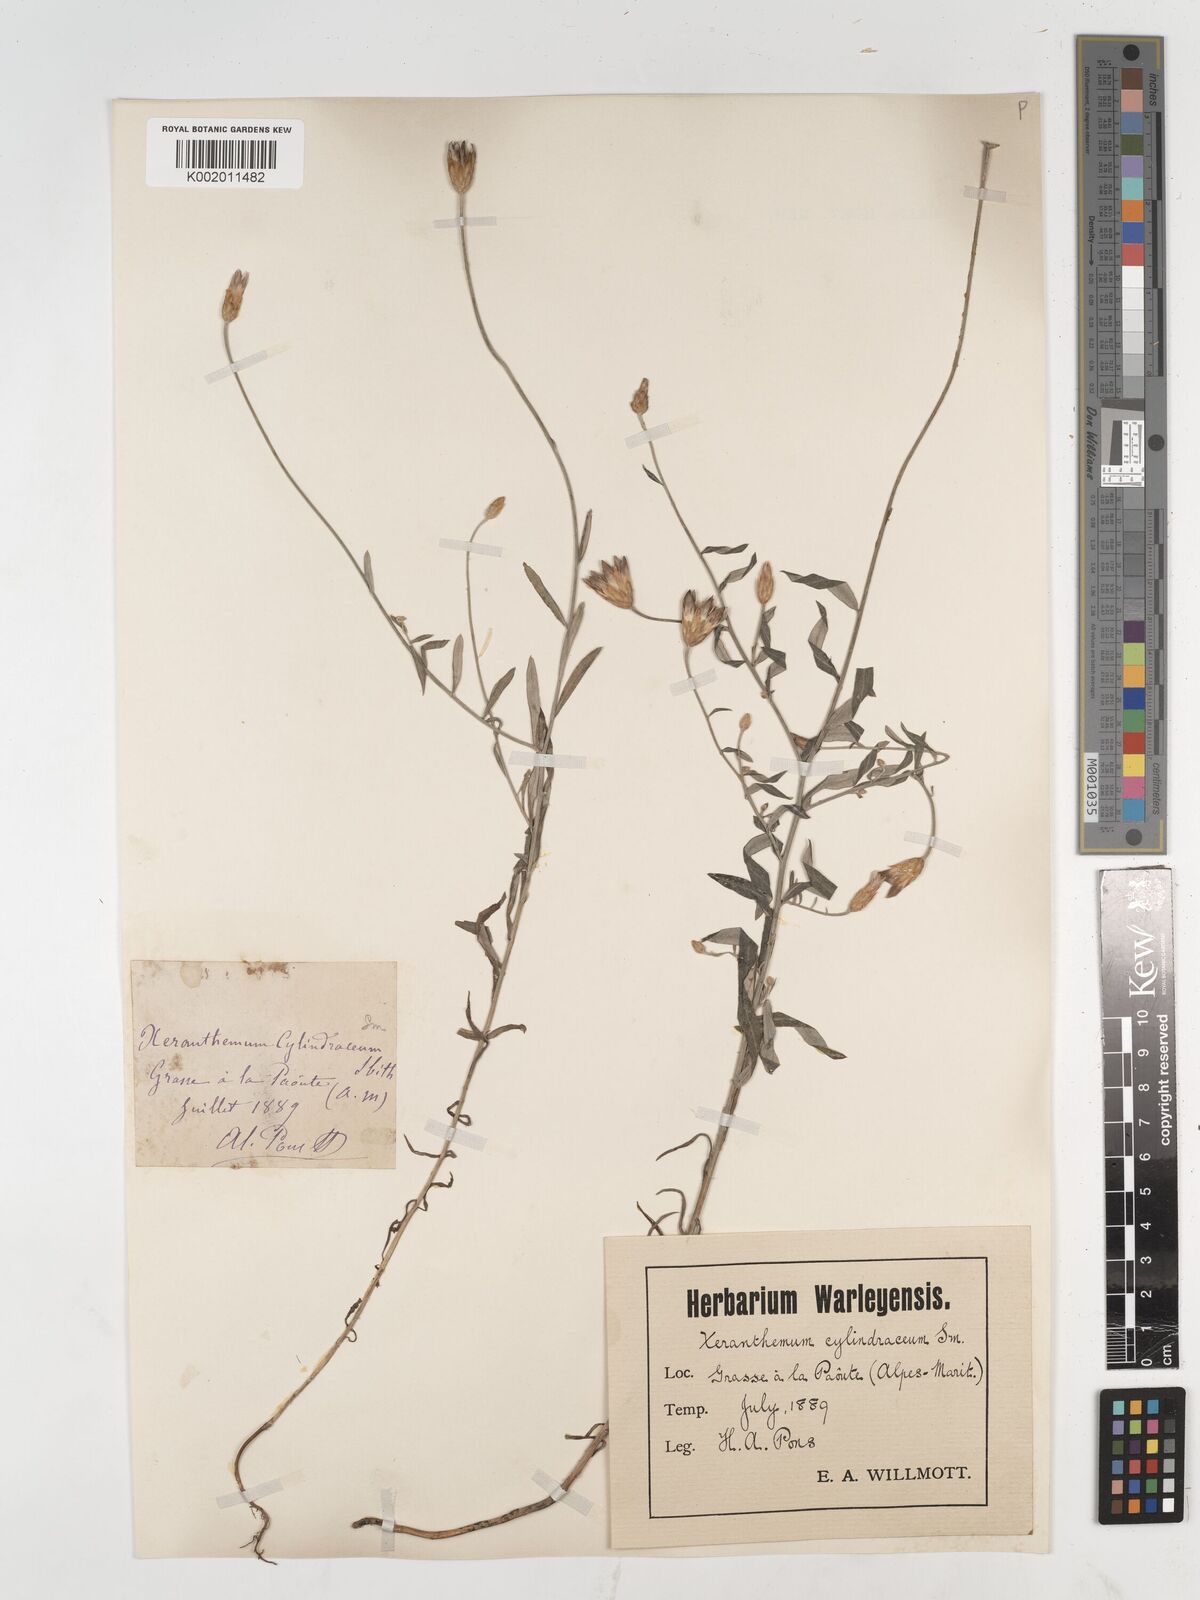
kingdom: Plantae
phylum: Tracheophyta
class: Magnoliopsida
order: Asterales
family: Asteraceae
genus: Xeranthemum
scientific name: Xeranthemum cylindraceum
